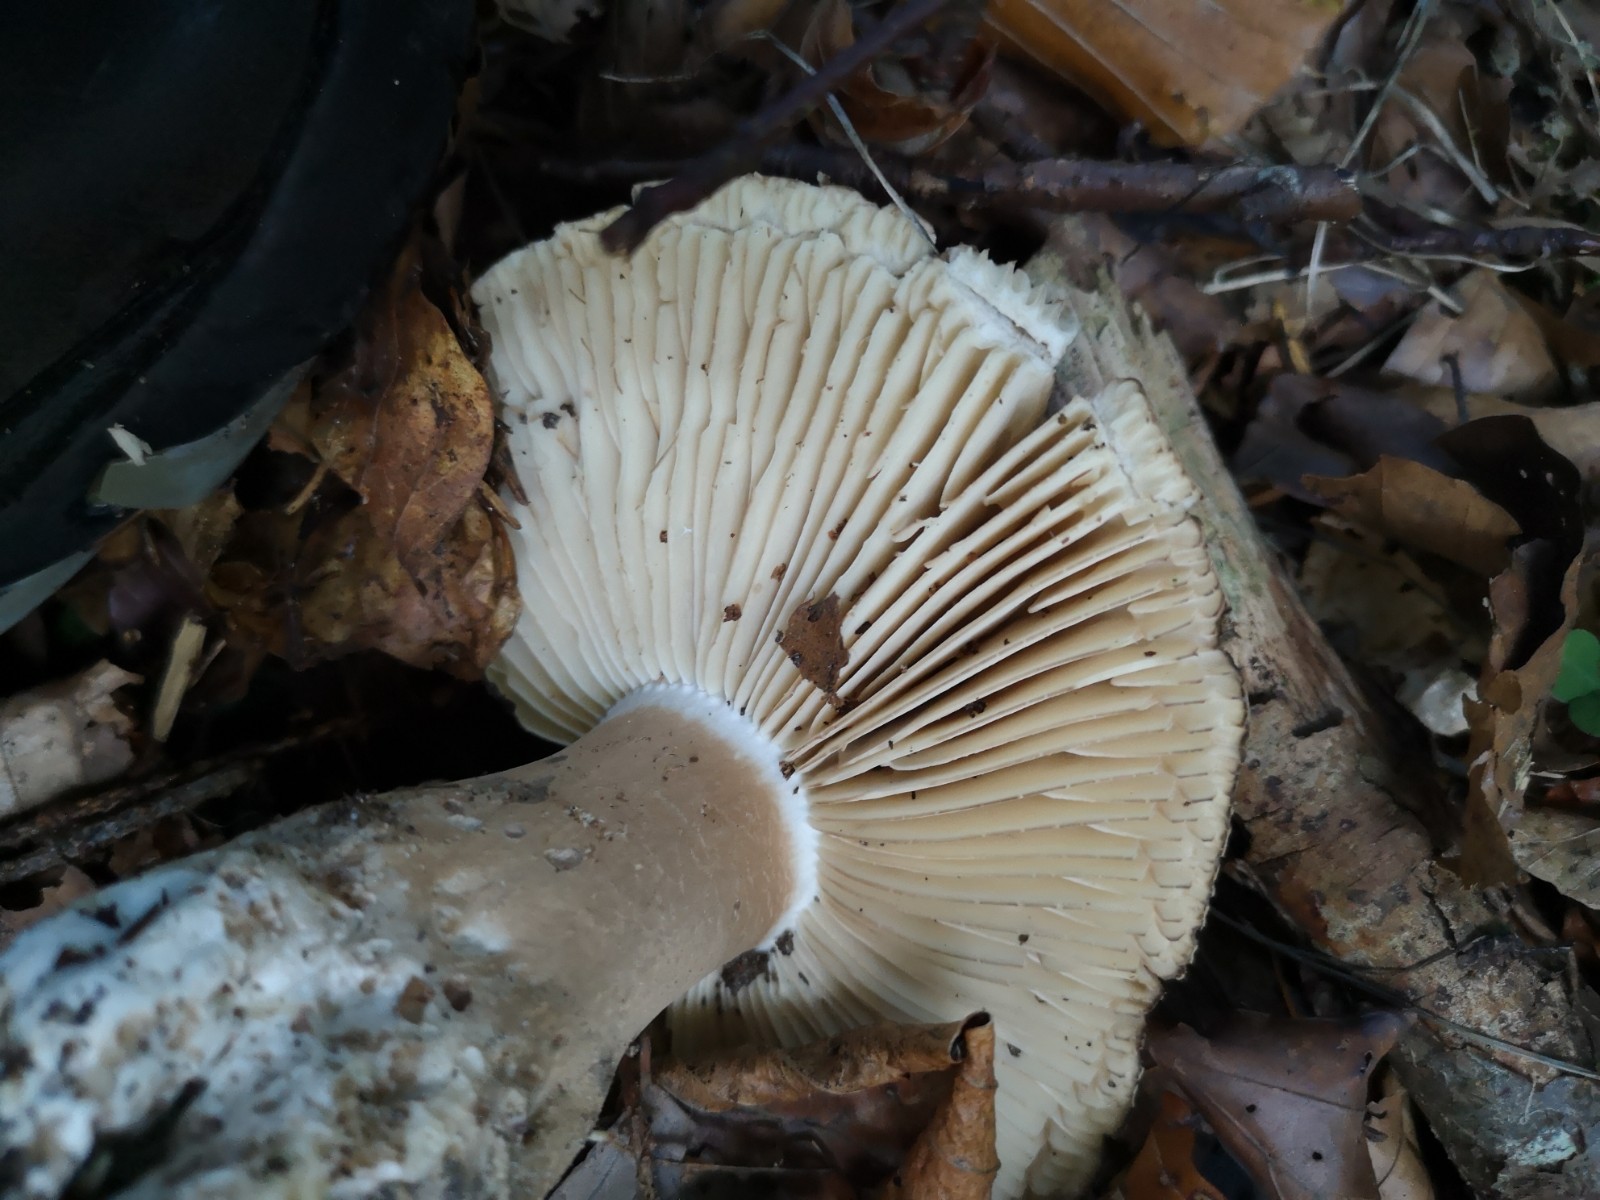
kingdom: Fungi
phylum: Basidiomycota
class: Agaricomycetes
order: Russulales
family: Russulaceae
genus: Russula
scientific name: Russula adusta
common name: sværtende skørhat
